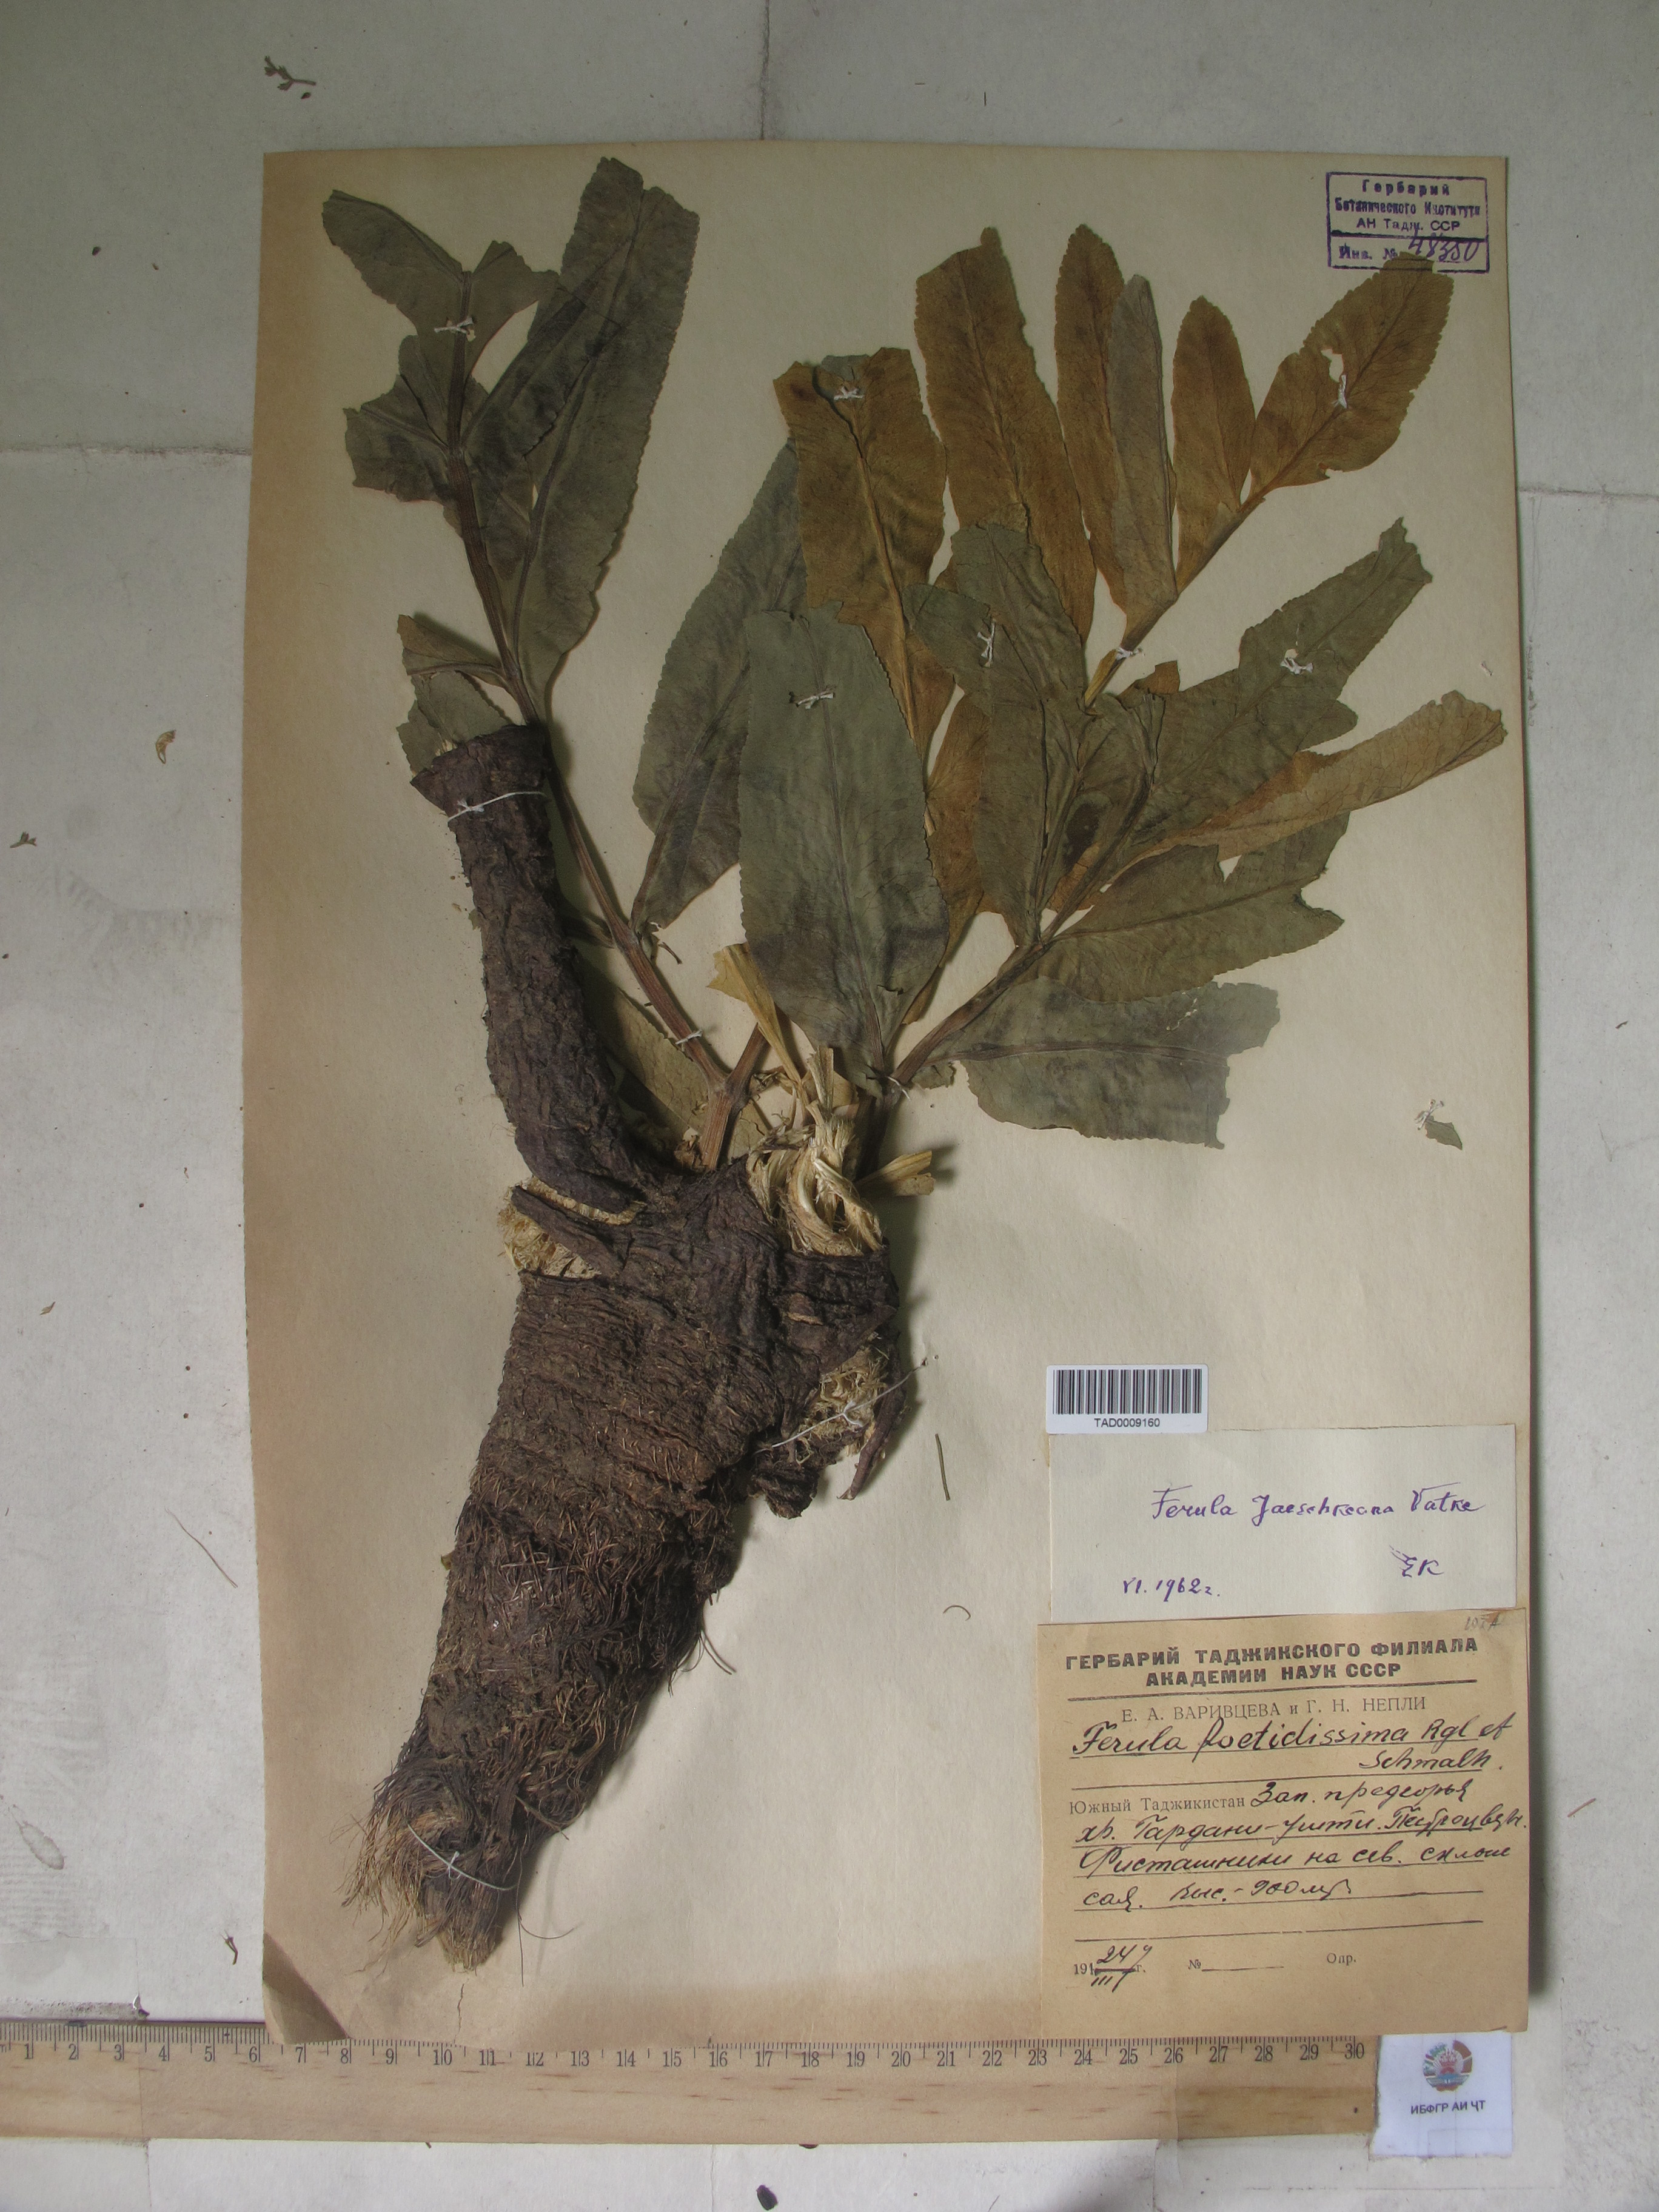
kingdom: Plantae
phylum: Tracheophyta
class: Magnoliopsida
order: Apiales
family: Apiaceae
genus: Ferula
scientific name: Ferula jaeschkeana
